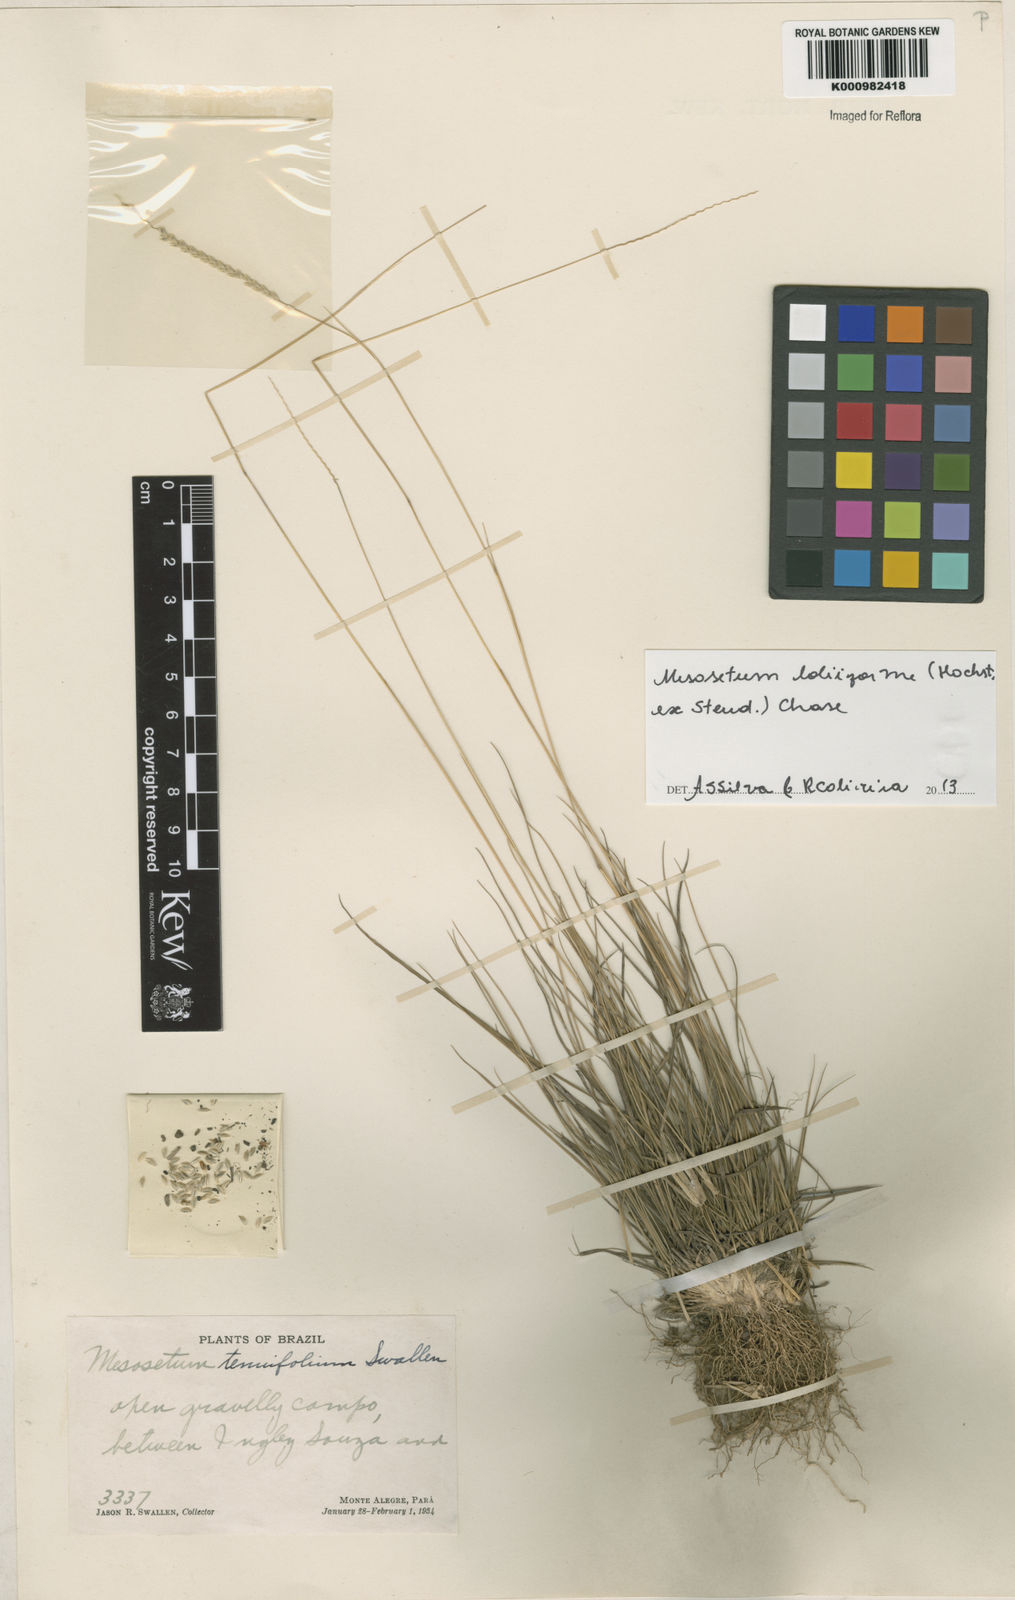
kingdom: Plantae
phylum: Tracheophyta
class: Liliopsida
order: Poales
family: Poaceae
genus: Mesosetum
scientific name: Mesosetum
